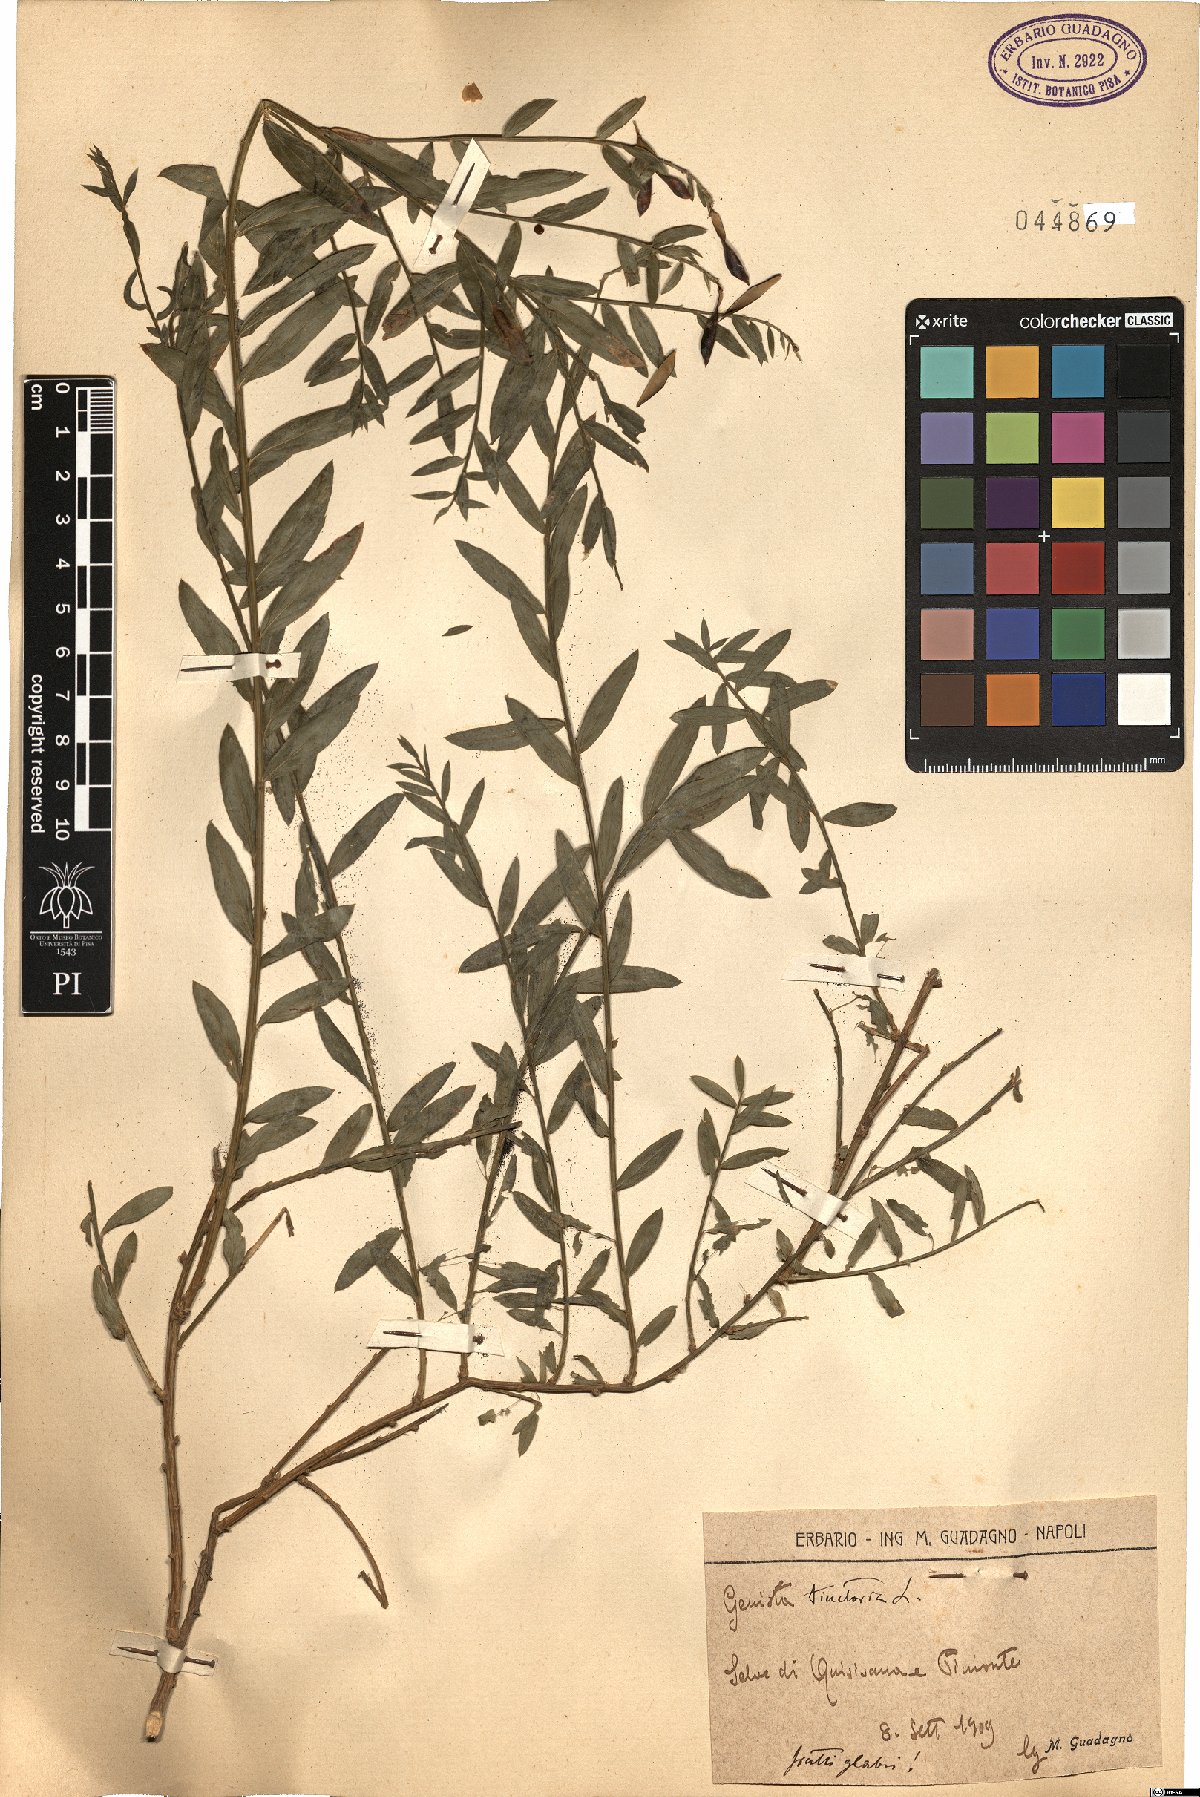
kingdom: Plantae
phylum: Tracheophyta
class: Magnoliopsida
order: Fabales
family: Fabaceae
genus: Genista
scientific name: Genista tinctoria
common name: Dyer's greenweed
